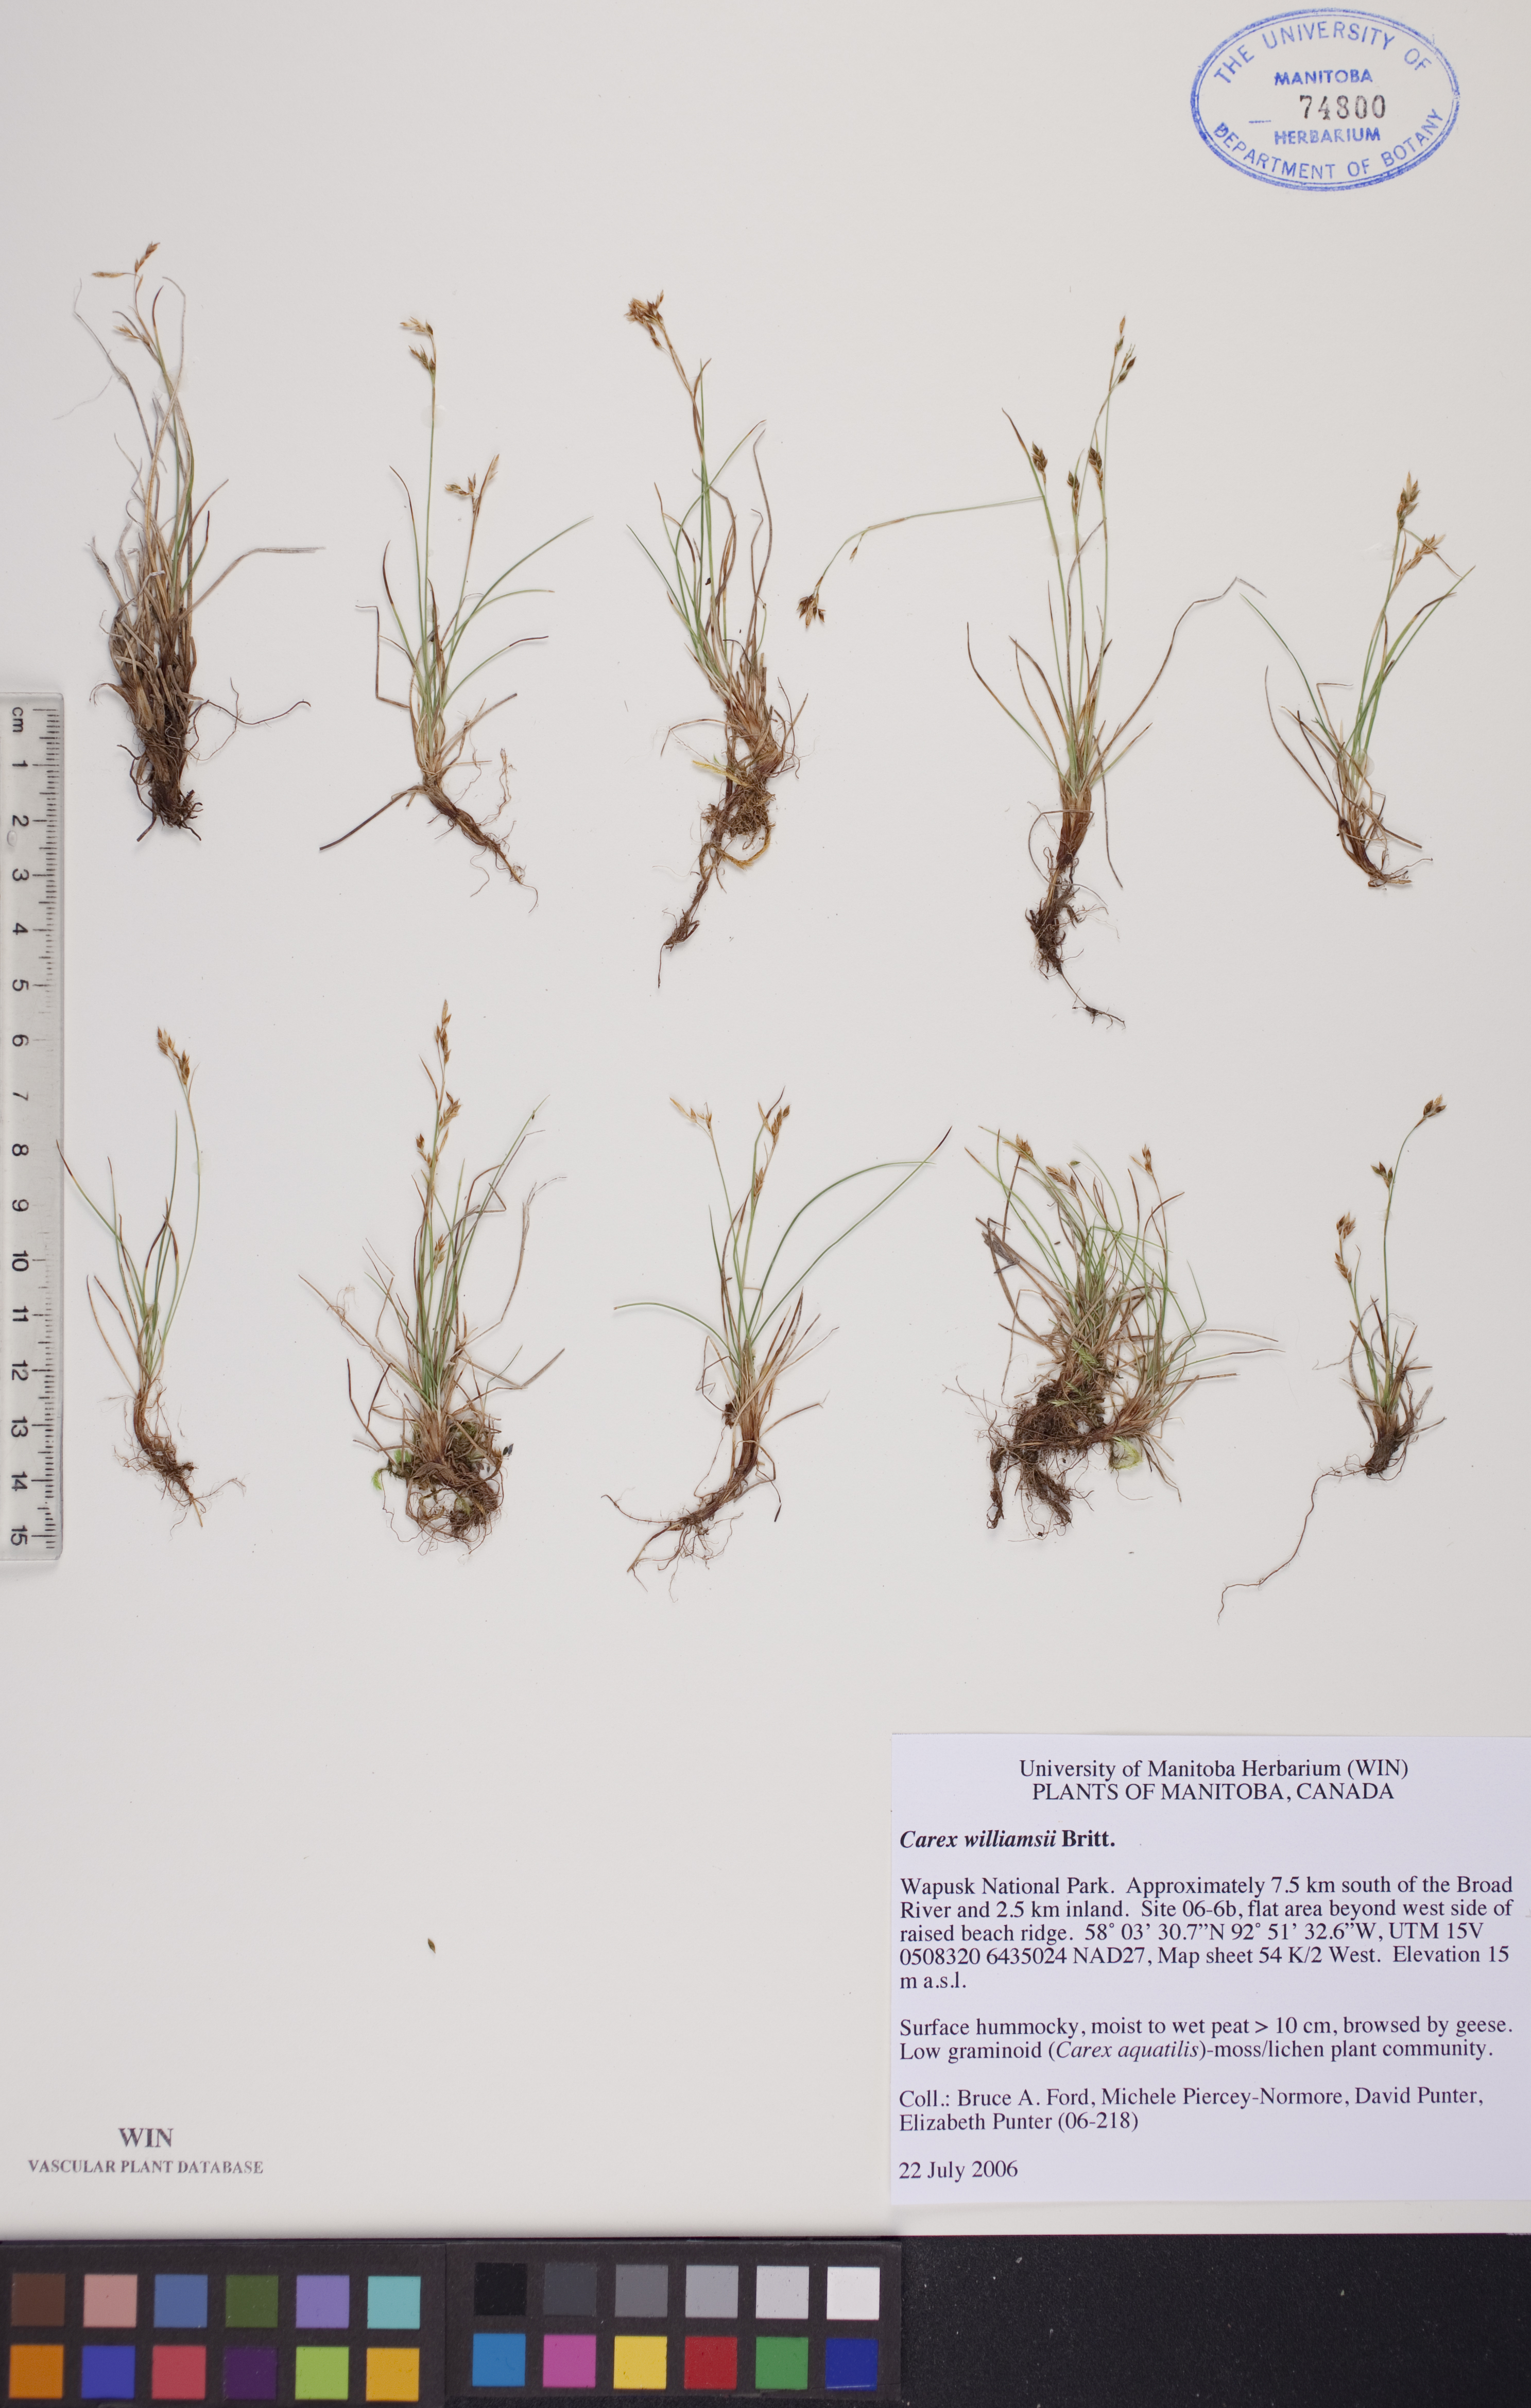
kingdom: Plantae
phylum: Tracheophyta
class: Liliopsida
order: Poales
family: Cyperaceae
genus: Carex
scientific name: Carex williamsii
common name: Williams' sedge
